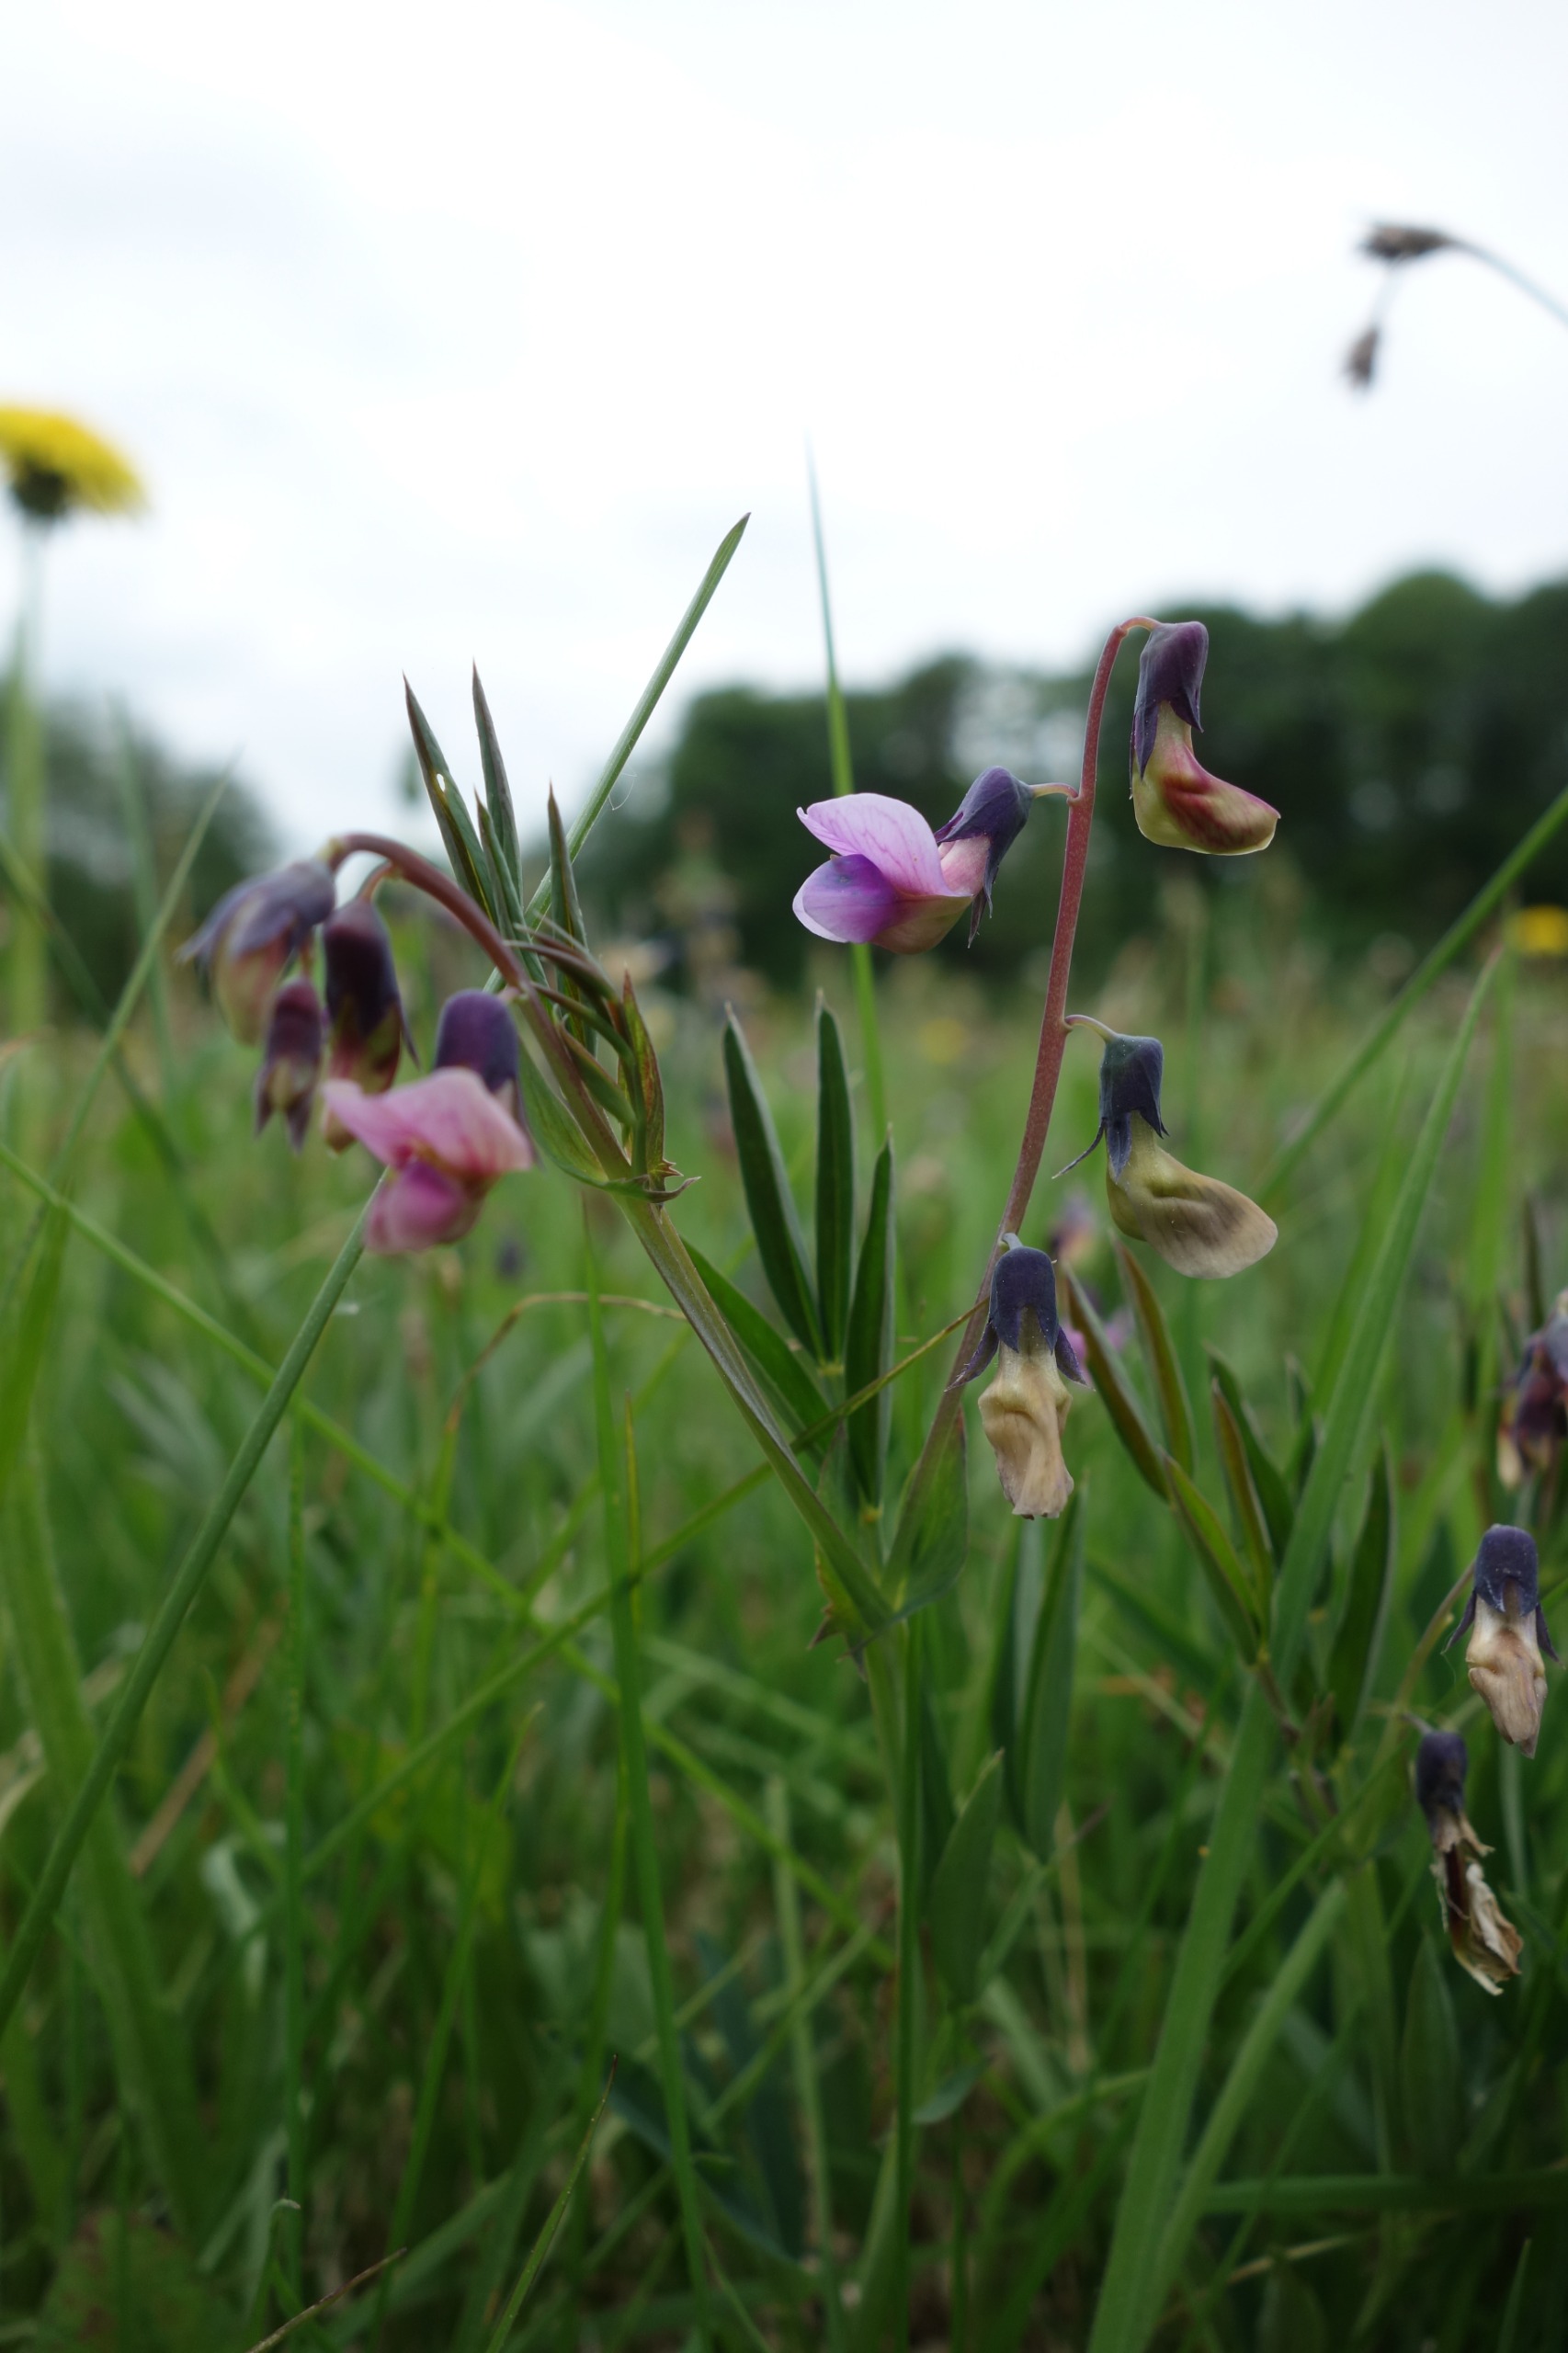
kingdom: Plantae
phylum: Tracheophyta
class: Magnoliopsida
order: Fabales
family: Fabaceae
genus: Lathyrus
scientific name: Lathyrus linifolius
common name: Krat-fladbælg
